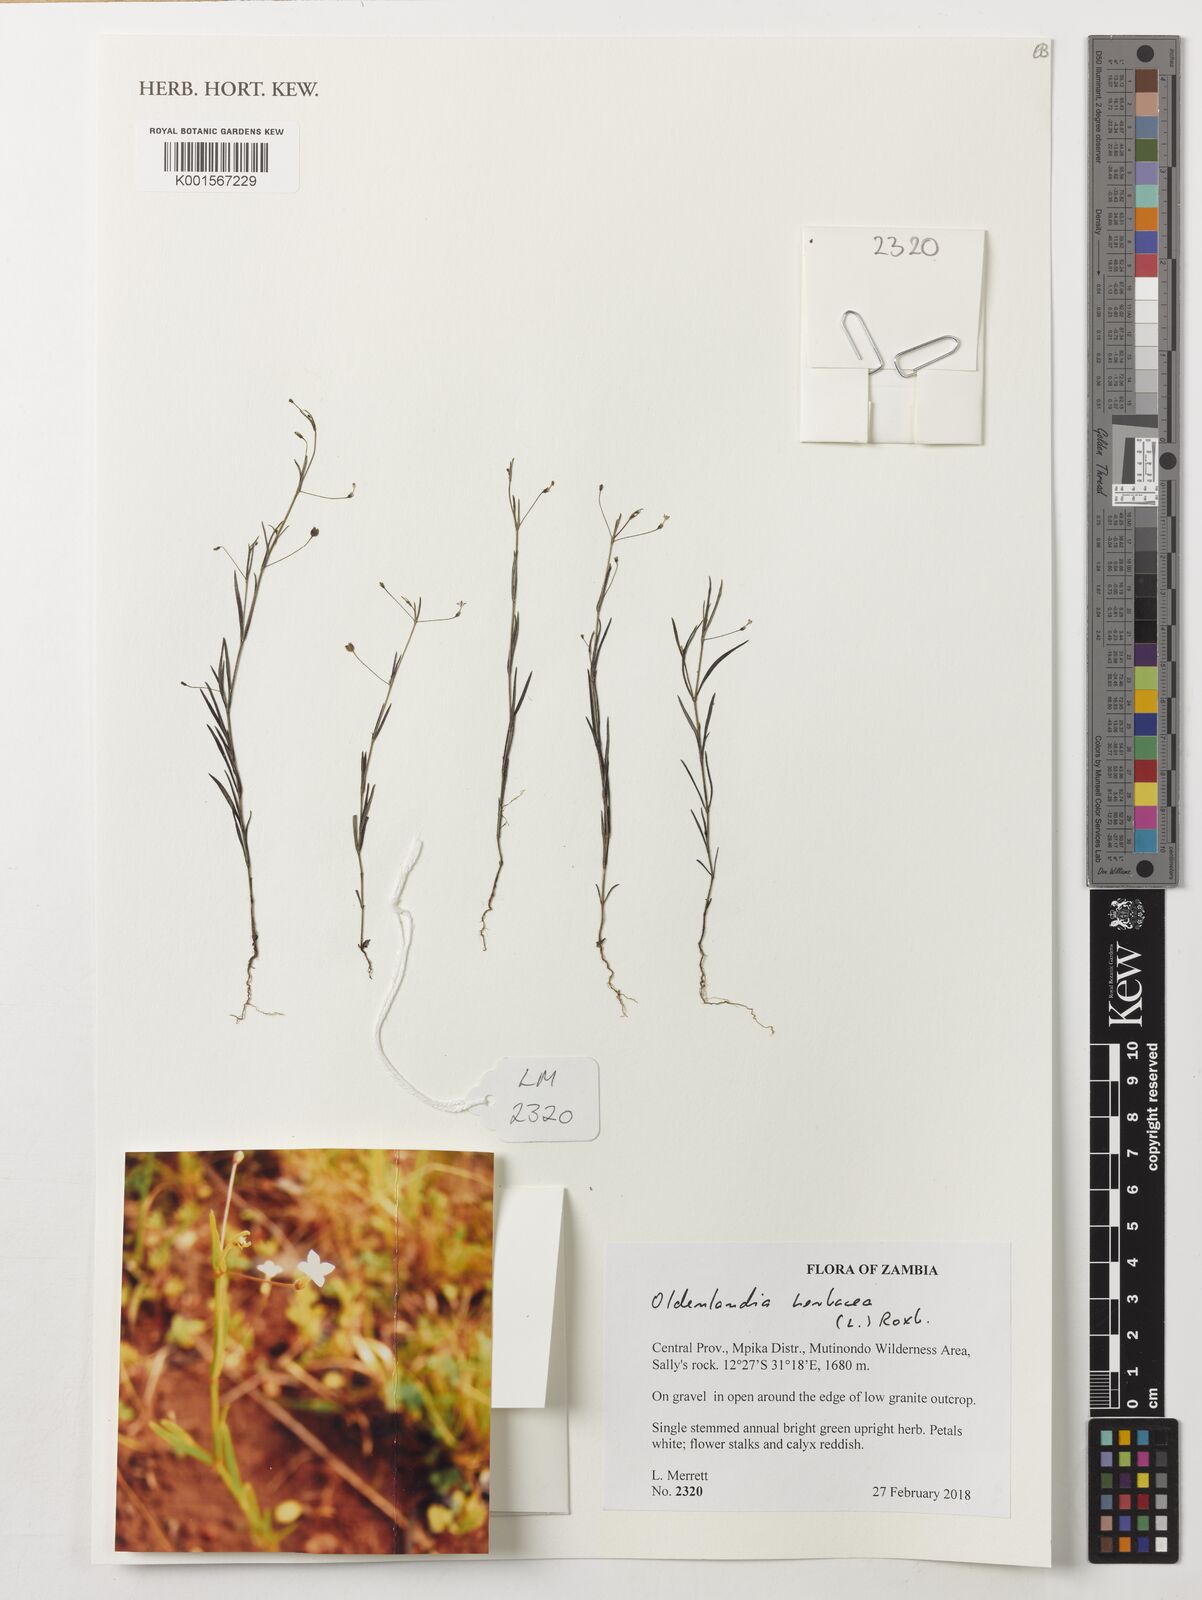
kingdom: Plantae
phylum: Tracheophyta
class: Magnoliopsida
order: Gentianales
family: Rubiaceae
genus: Oldenlandia
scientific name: Oldenlandia herbacea
